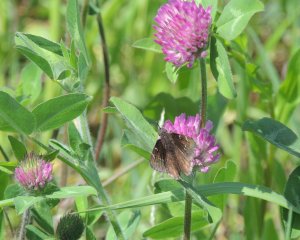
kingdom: Animalia
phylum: Arthropoda
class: Insecta
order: Lepidoptera
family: Hesperiidae
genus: Autochton
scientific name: Autochton
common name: Northern Cloudywing
